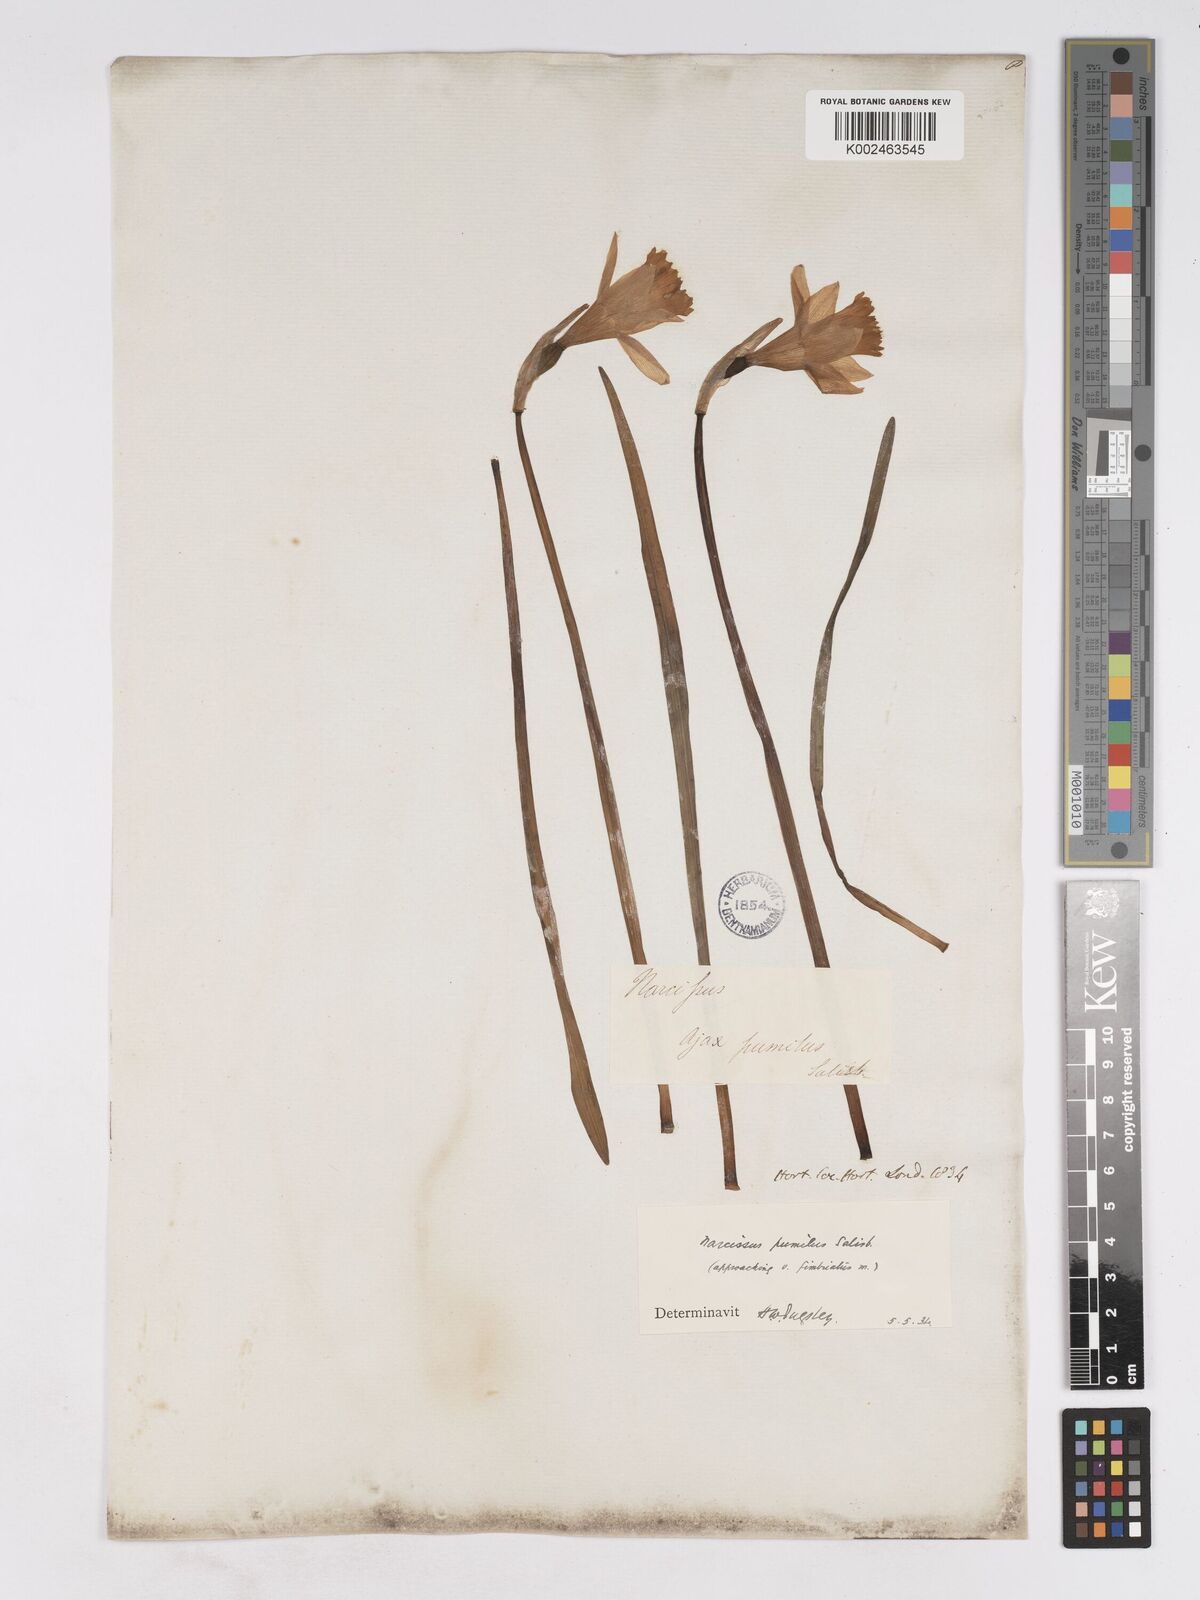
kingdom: Plantae
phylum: Tracheophyta
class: Liliopsida
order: Asparagales
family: Amaryllidaceae
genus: Narcissus
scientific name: Narcissus minor
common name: Lesser daffodil
